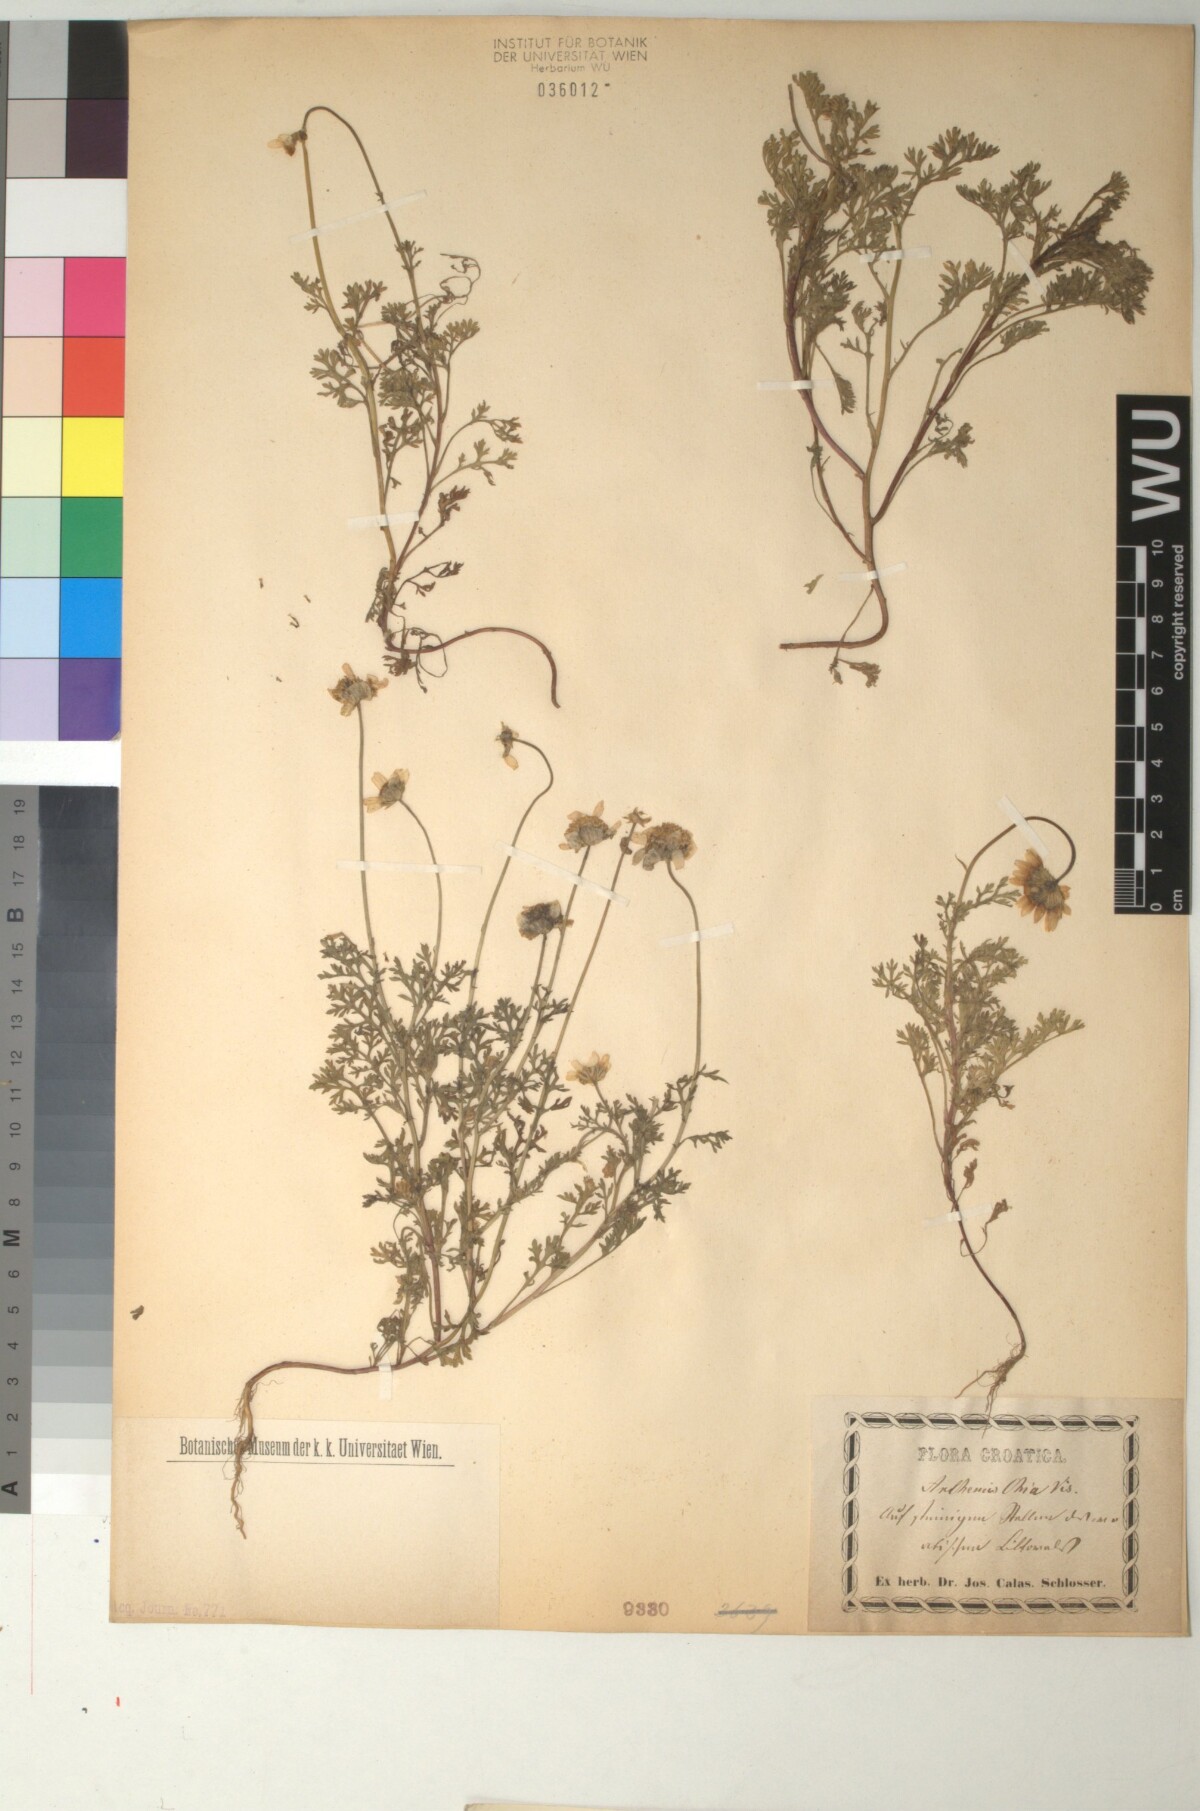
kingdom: Plantae
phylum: Tracheophyta
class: Magnoliopsida
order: Asterales
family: Asteraceae
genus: Anthemis
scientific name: Anthemis chia
